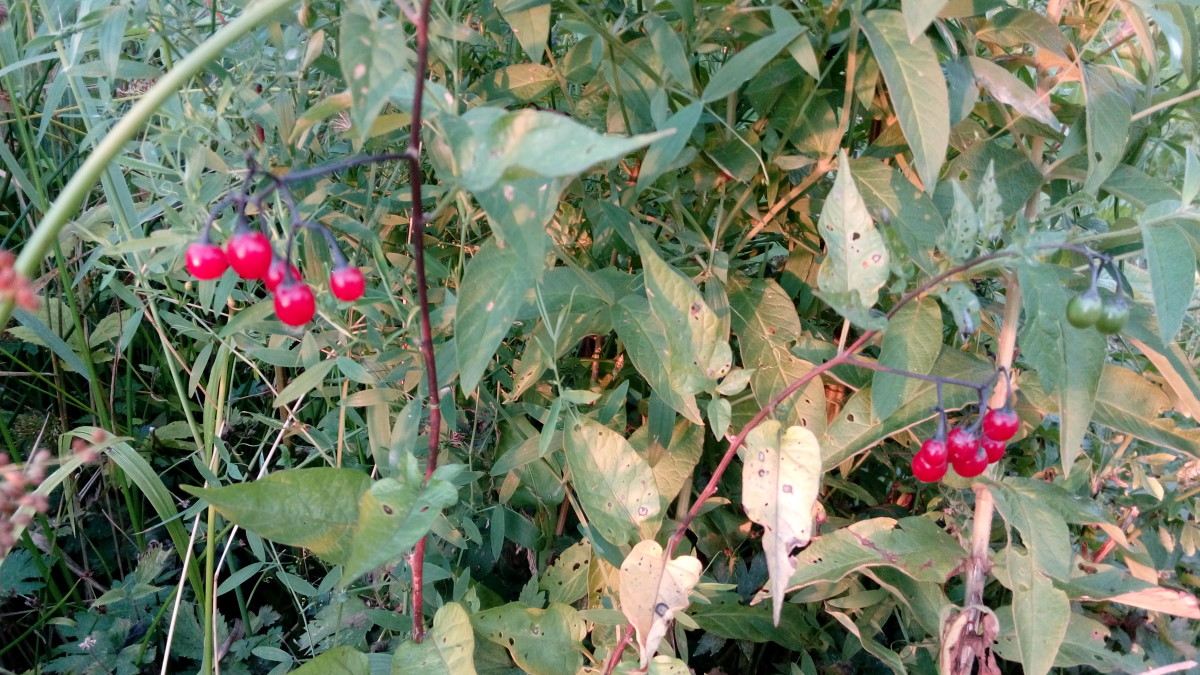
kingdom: Plantae
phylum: Tracheophyta
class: Magnoliopsida
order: Solanales
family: Solanaceae
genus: Solanum
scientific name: Solanum dulcamara
